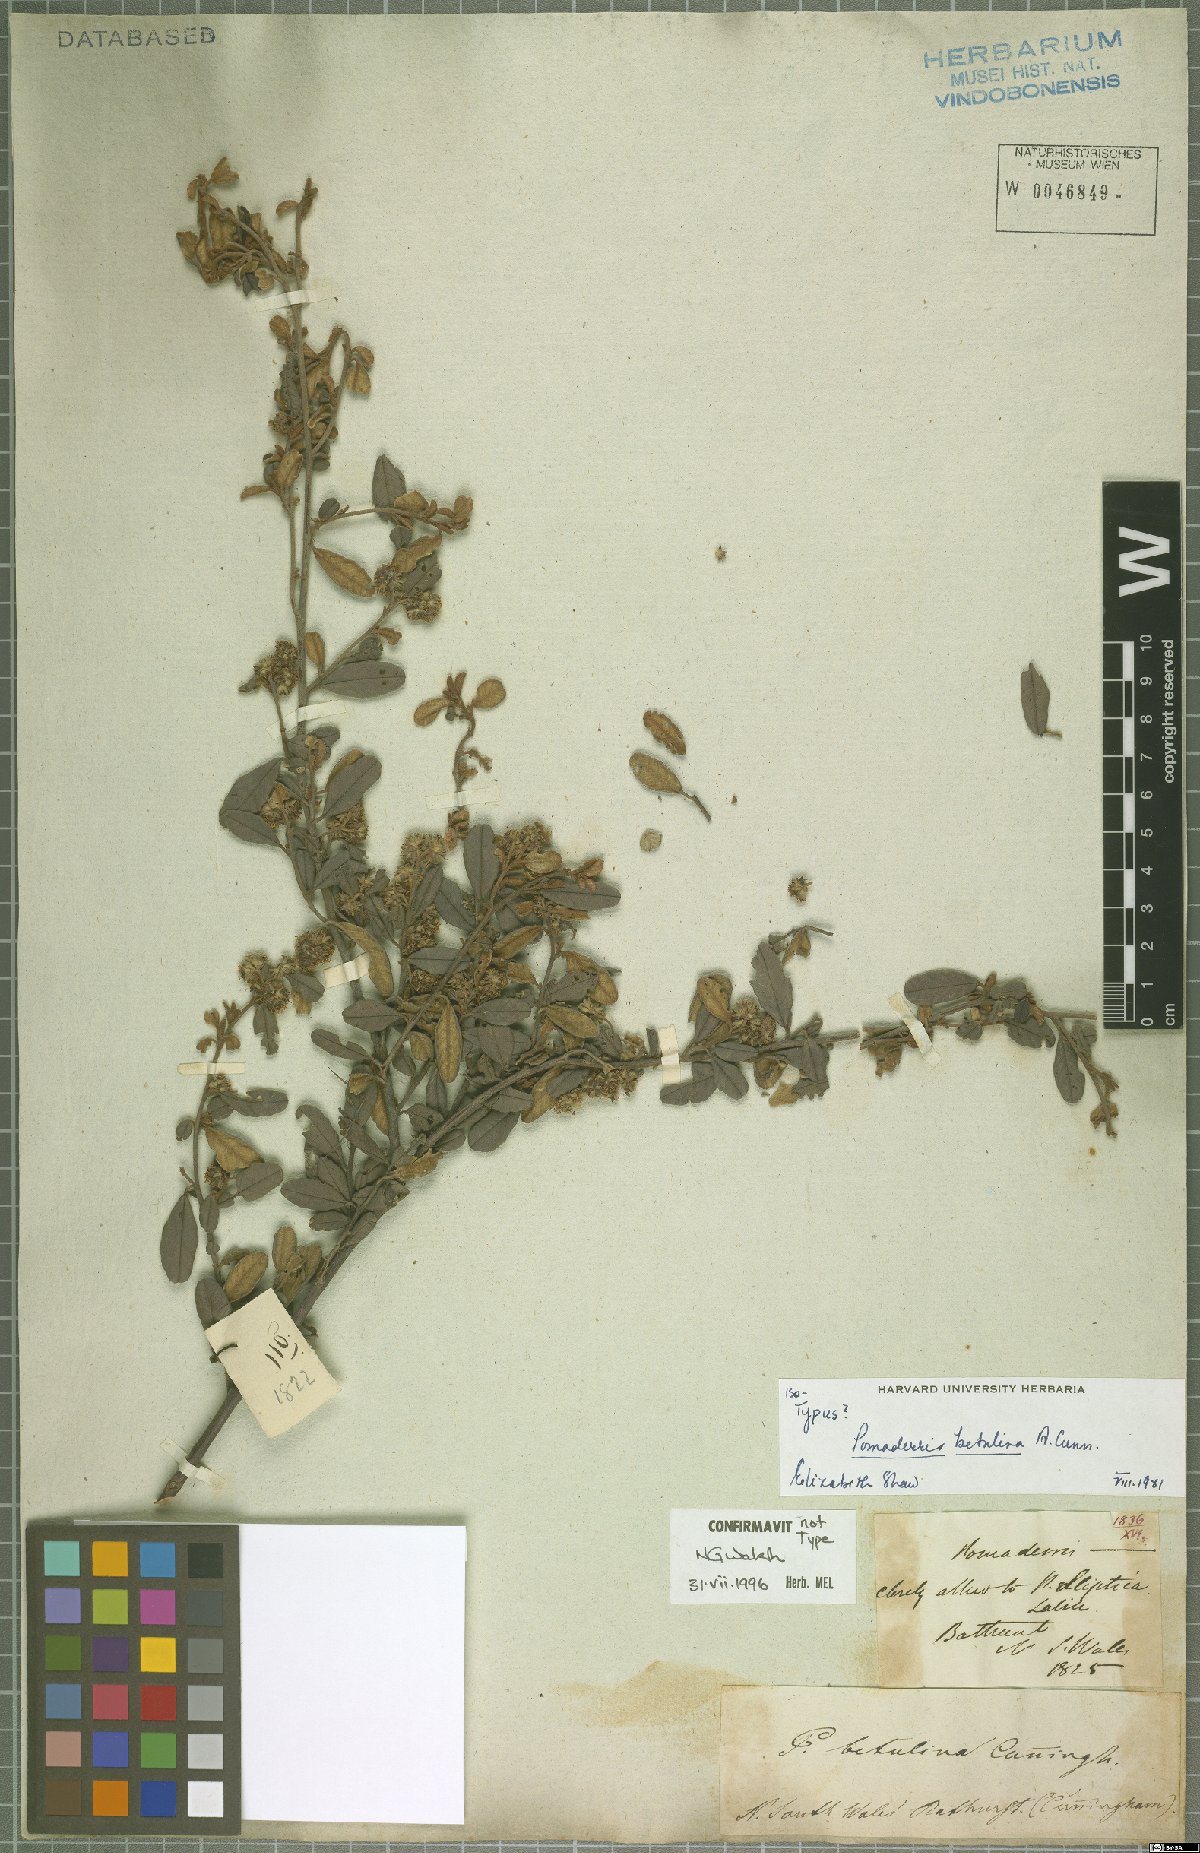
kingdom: Plantae
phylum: Tracheophyta
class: Magnoliopsida
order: Rosales
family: Rhamnaceae
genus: Pomaderris
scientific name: Pomaderris betulina
